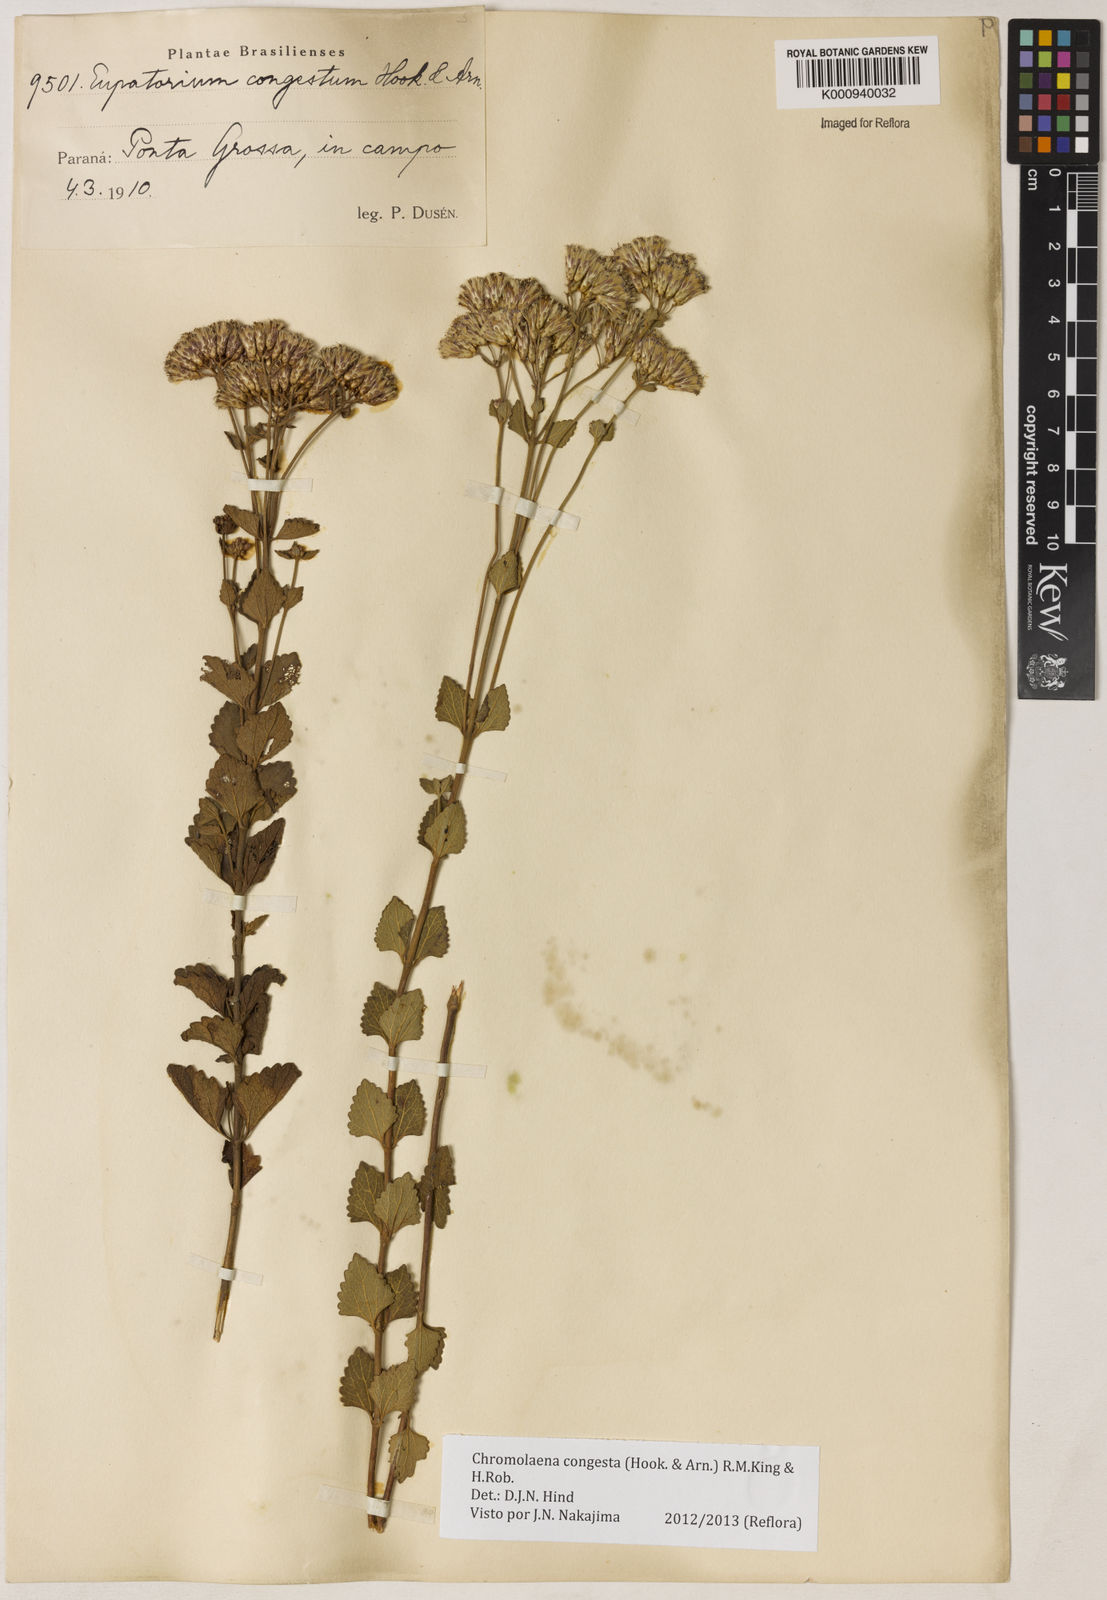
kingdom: Plantae
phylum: Tracheophyta
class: Magnoliopsida
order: Asterales
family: Asteraceae
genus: Chromolaena
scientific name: Chromolaena congesta
